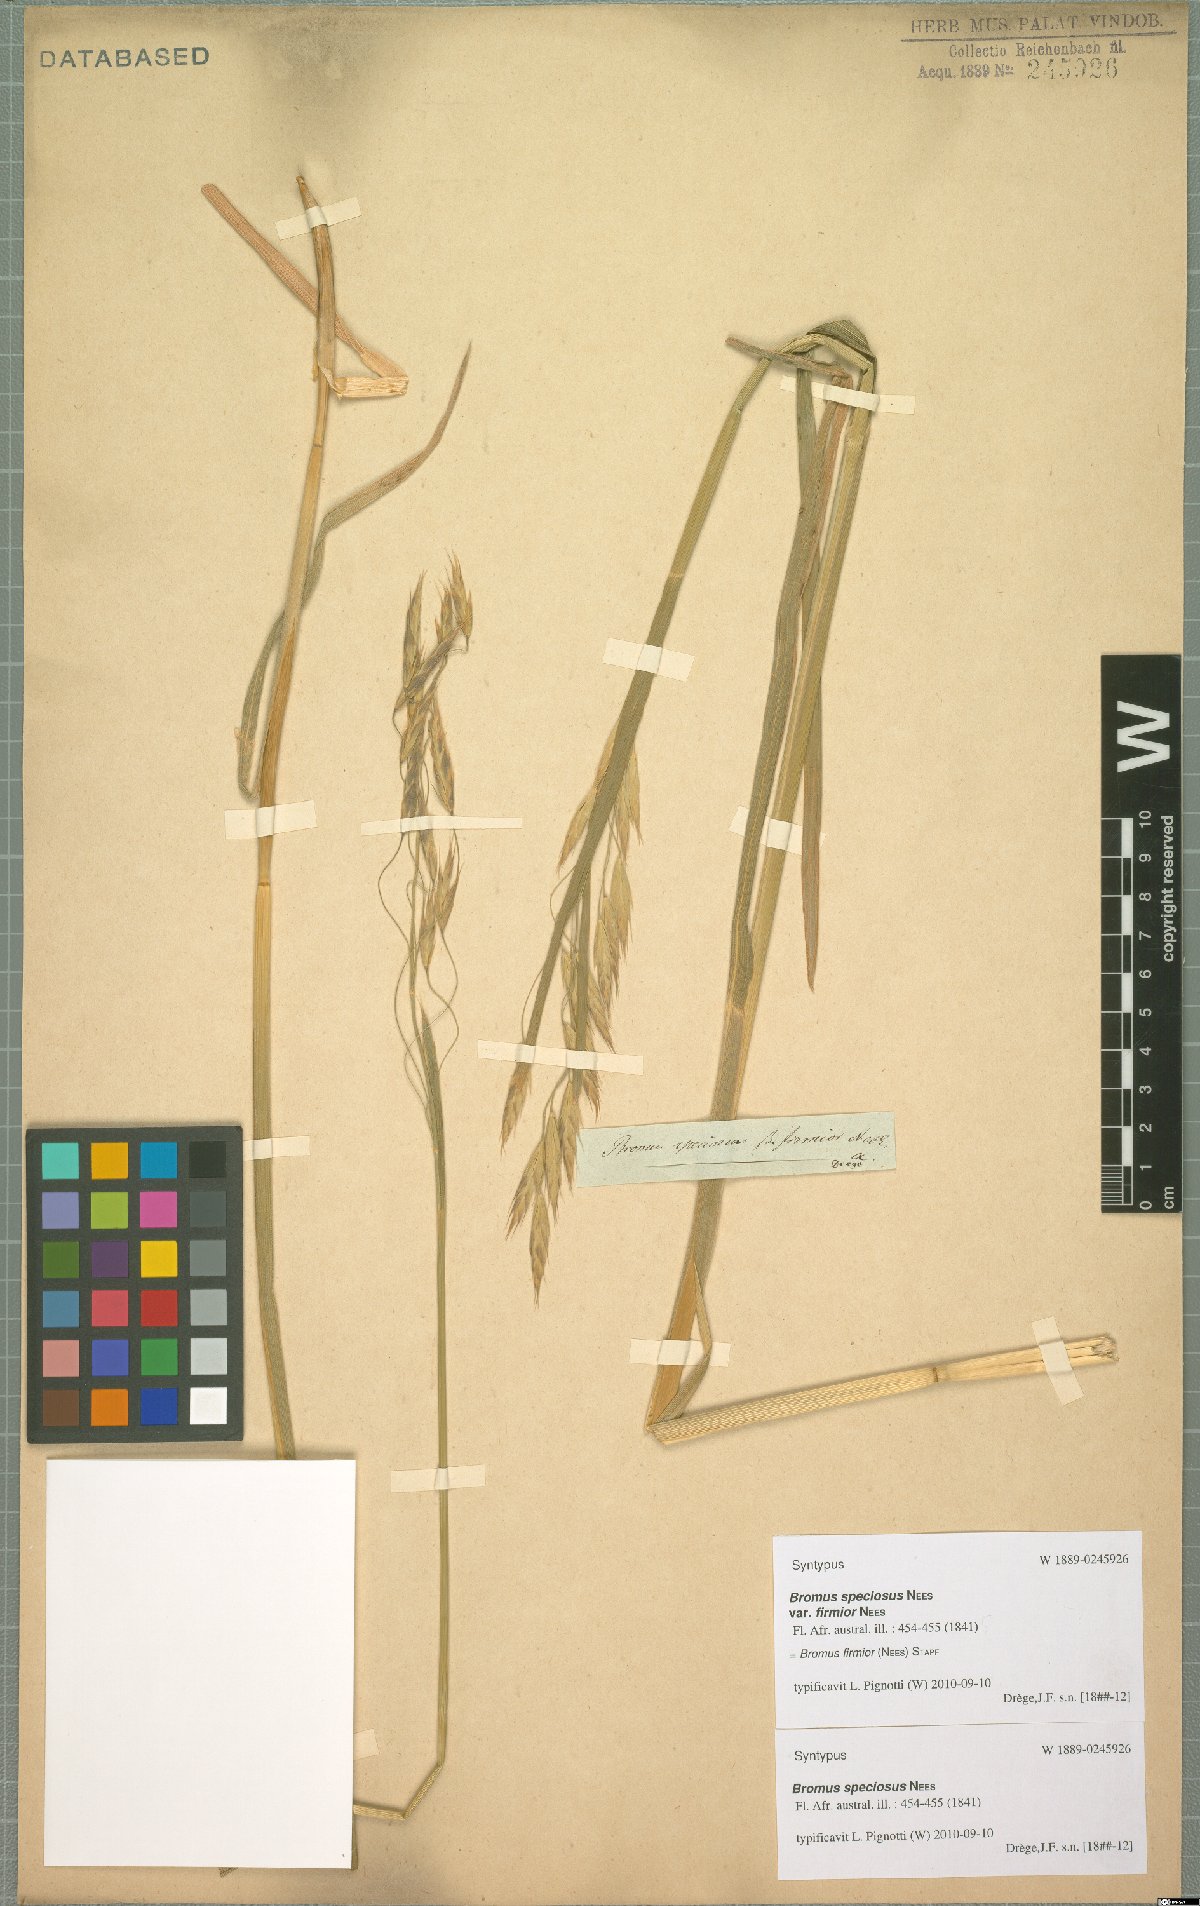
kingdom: Plantae
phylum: Tracheophyta
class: Liliopsida
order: Poales
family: Poaceae
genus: Bromus
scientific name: Bromus firmior
